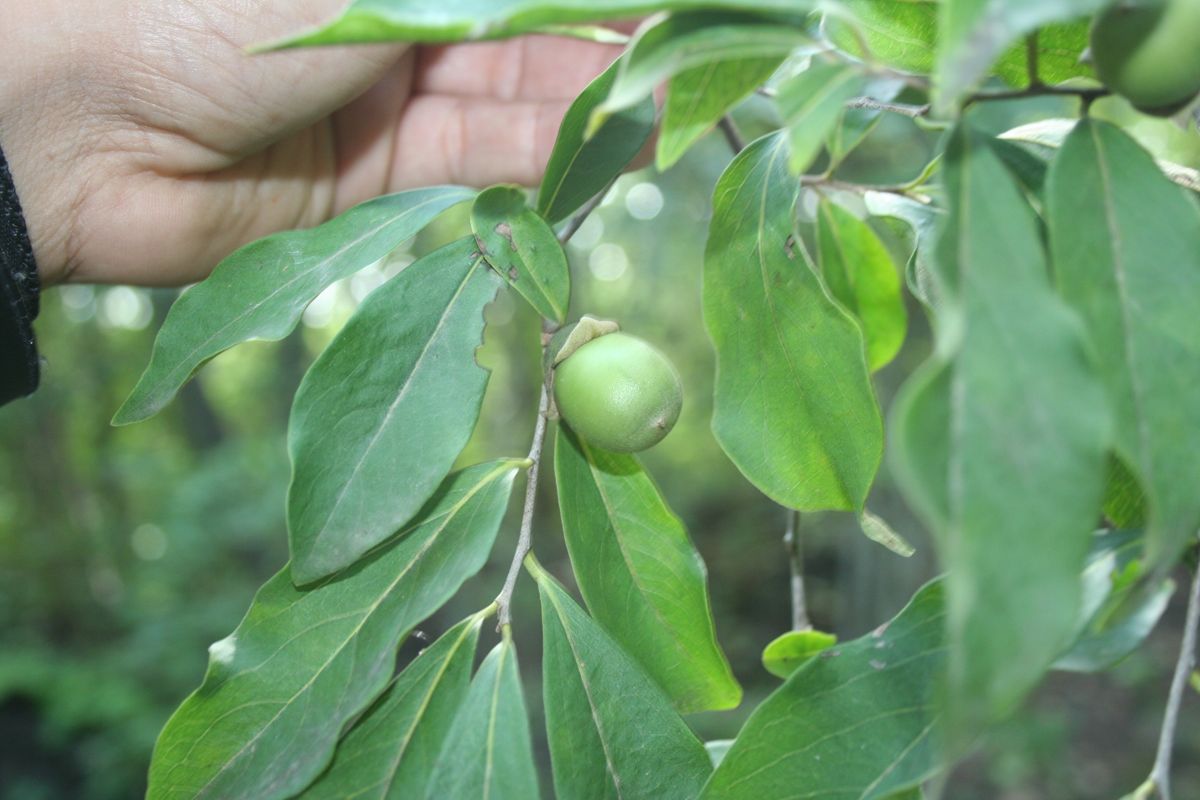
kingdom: Plantae
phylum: Tracheophyta
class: Magnoliopsida
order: Ericales
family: Ebenaceae
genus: Diospyros
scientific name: Diospyros salicifolia
